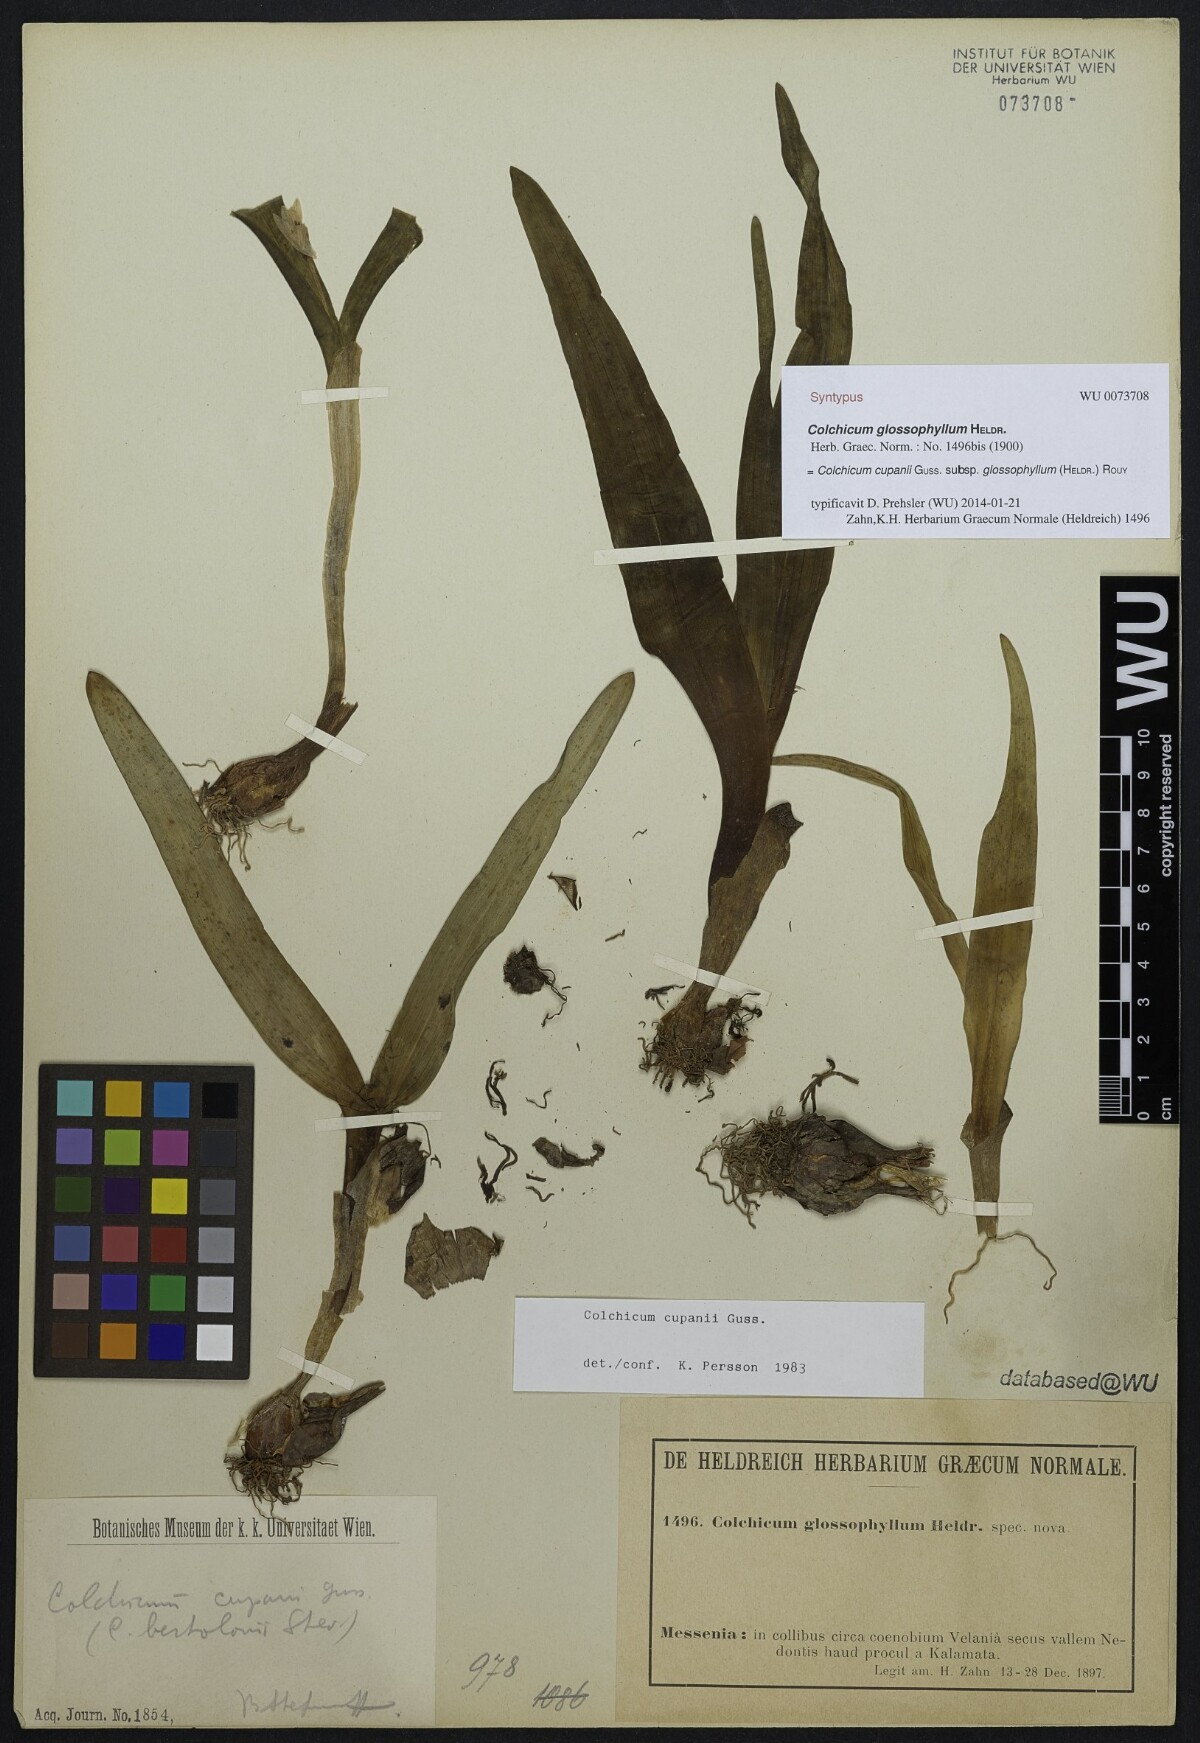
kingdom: Plantae
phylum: Tracheophyta
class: Liliopsida
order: Liliales
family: Colchicaceae
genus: Colchicum
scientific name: Colchicum cupanii
